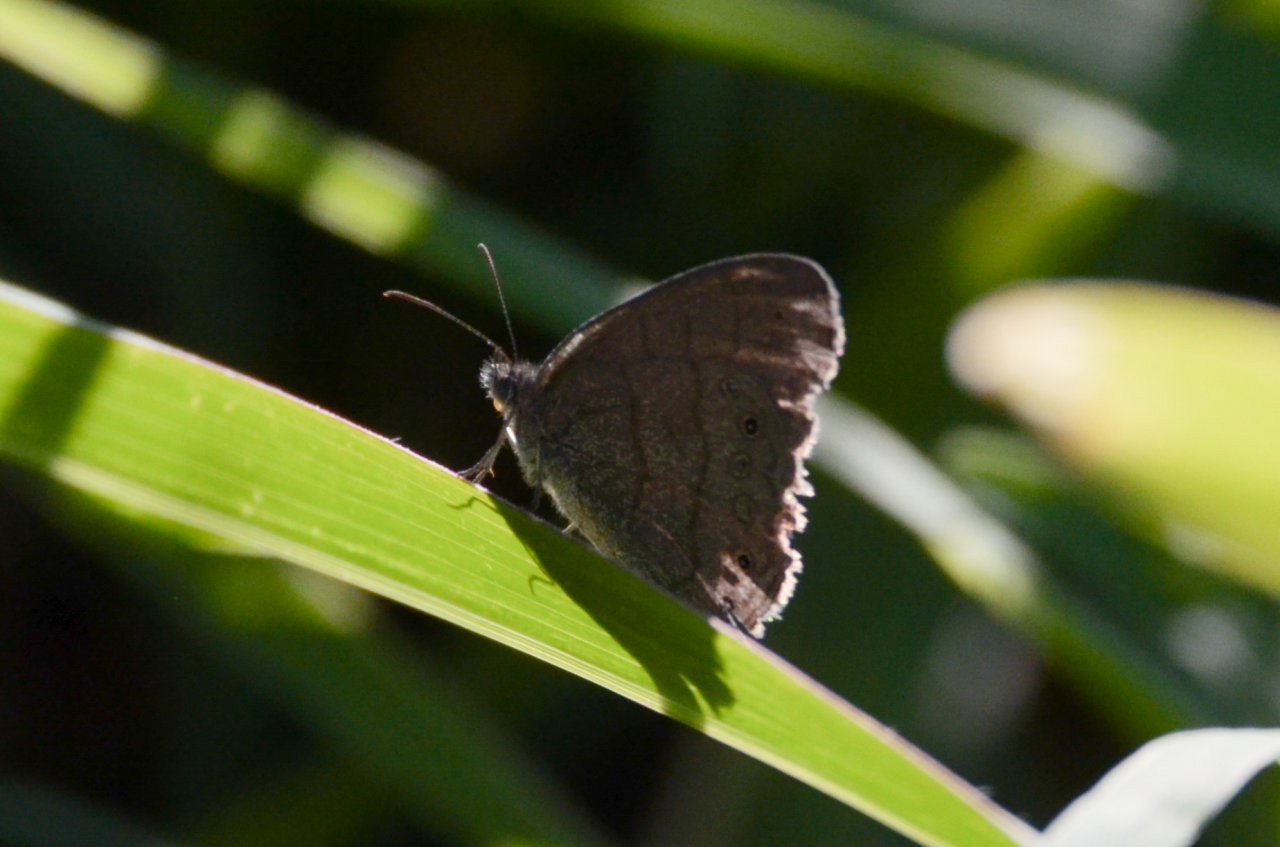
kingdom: Animalia
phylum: Arthropoda
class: Insecta
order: Lepidoptera
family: Nymphalidae
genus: Hermeuptychia
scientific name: Hermeuptychia hermes
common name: Hermes Satyr
